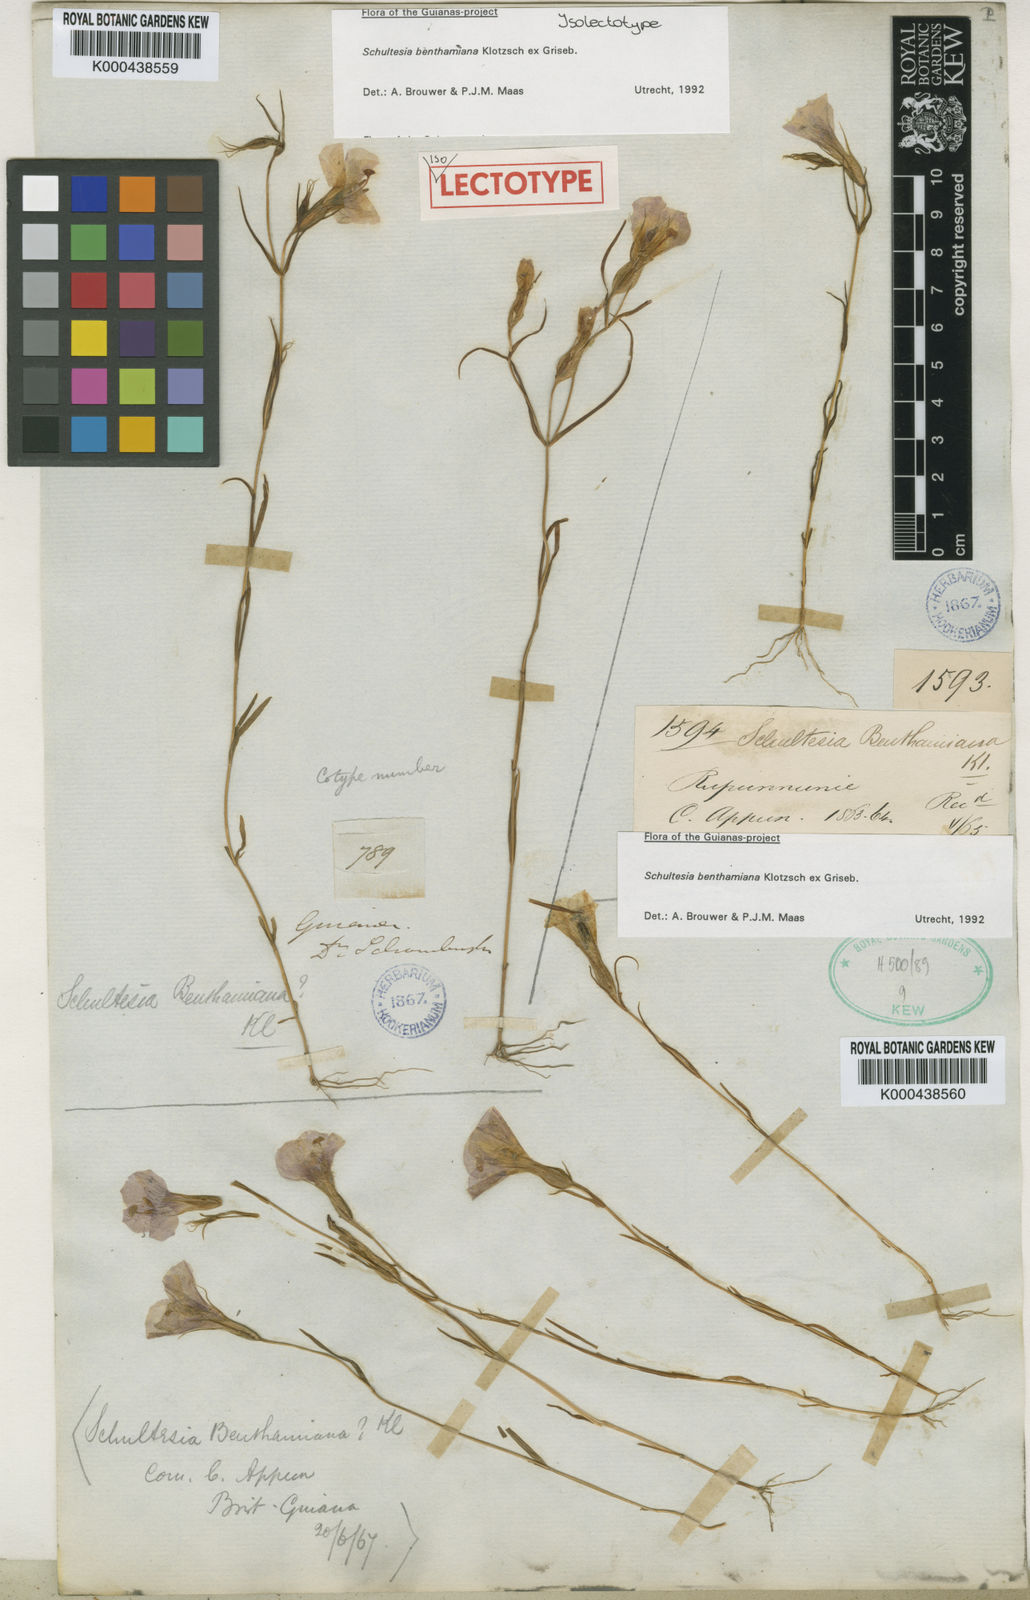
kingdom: Plantae
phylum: Tracheophyta
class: Magnoliopsida
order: Gentianales
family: Gentianaceae
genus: Schultesia
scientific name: Schultesia benthamiana
